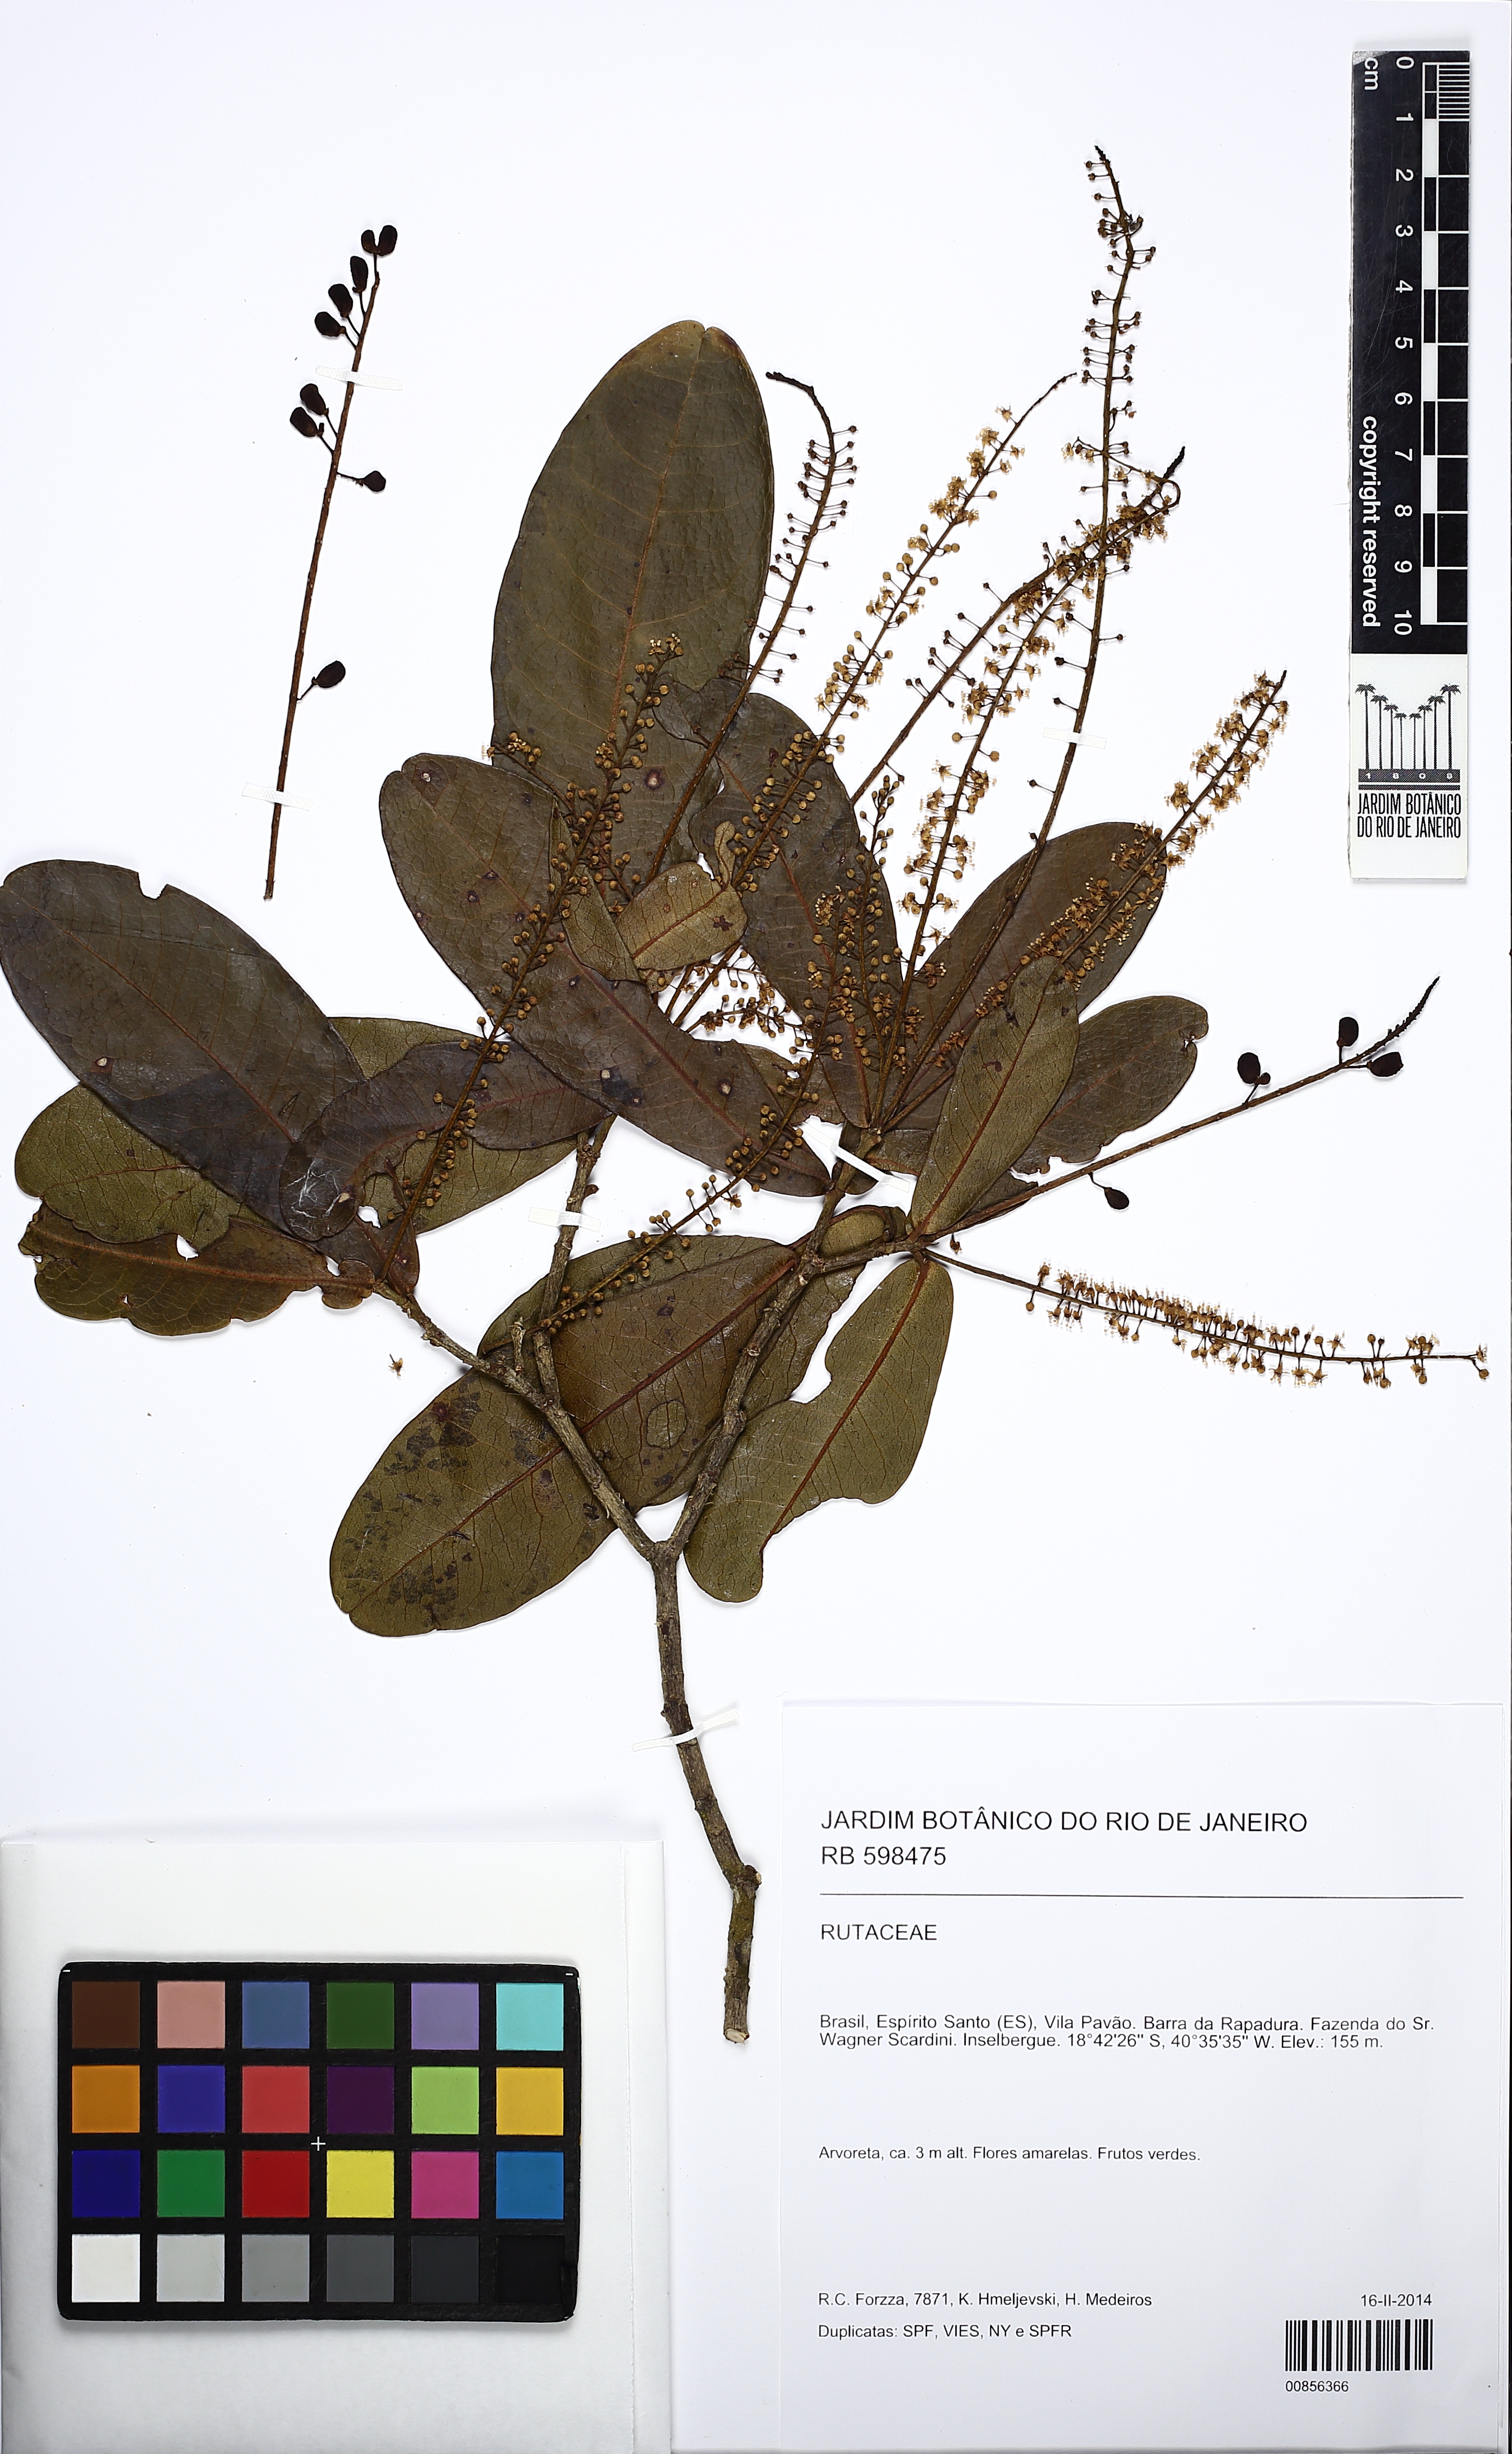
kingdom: Plantae
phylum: Tracheophyta
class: Magnoliopsida
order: Sapindales
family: Rutaceae
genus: Pilocarpus
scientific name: Pilocarpus spicatus
